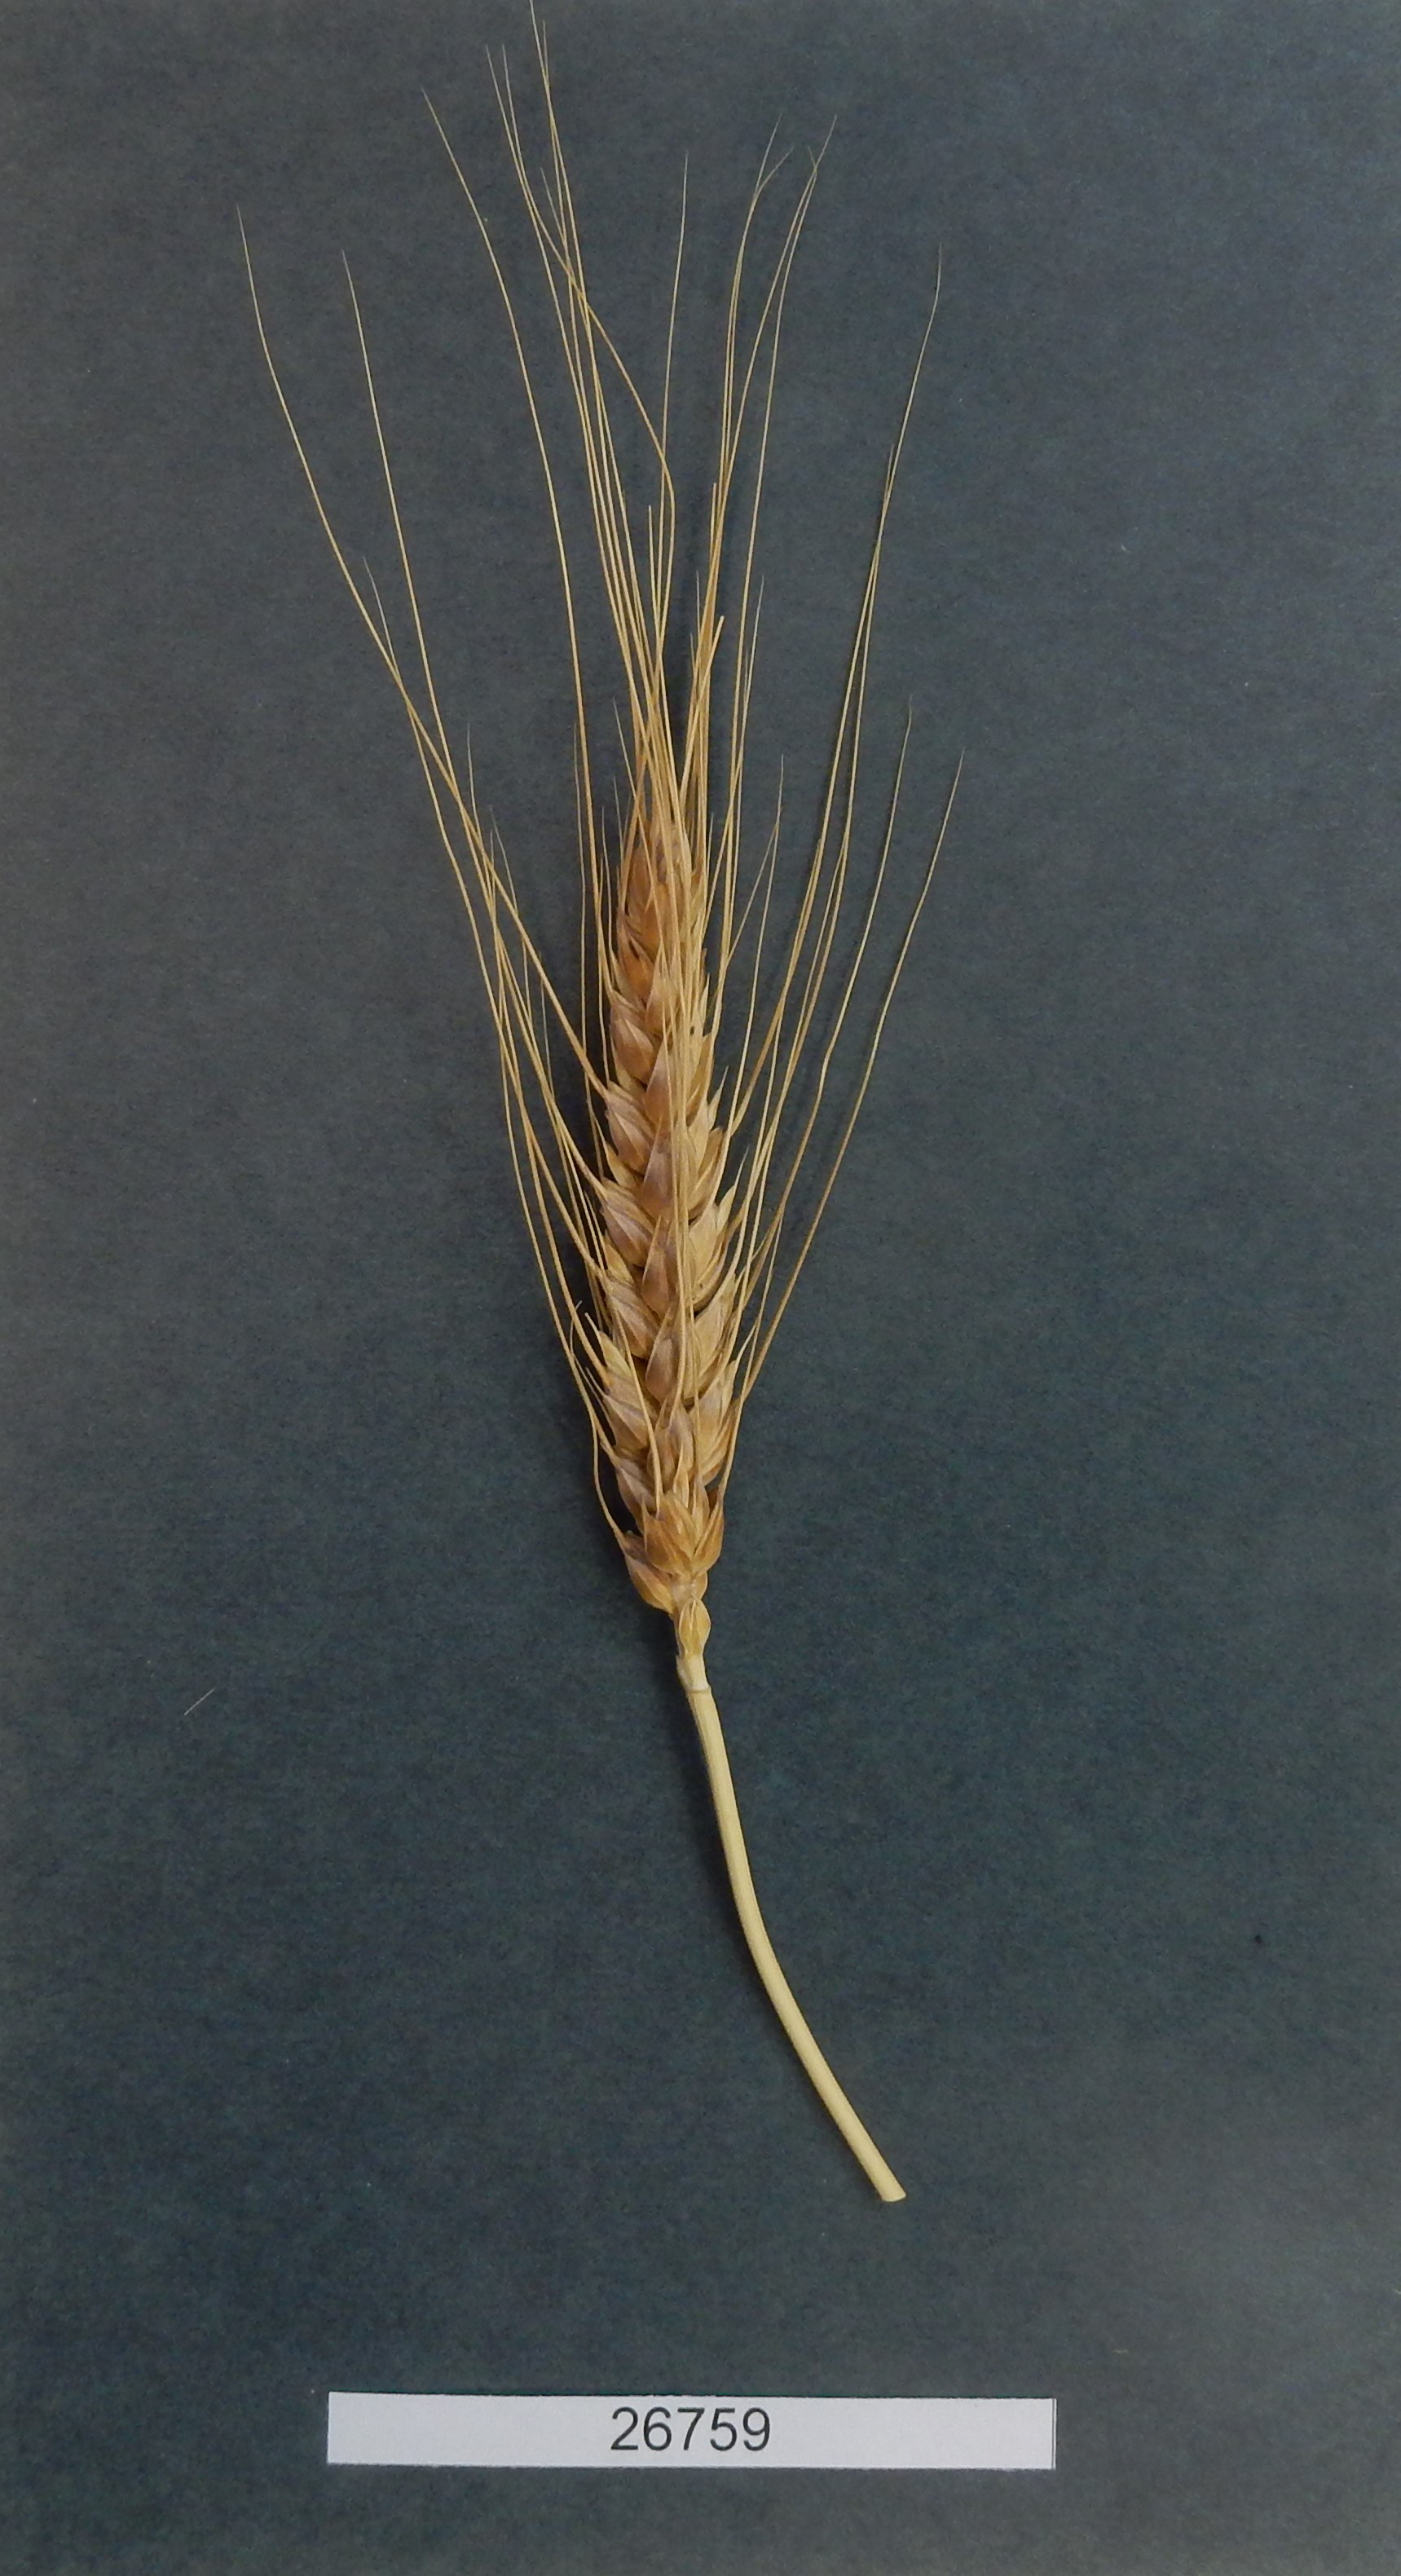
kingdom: Plantae
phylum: Tracheophyta
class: Liliopsida
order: Poales
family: Poaceae
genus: Triticum
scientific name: Triticum aestivum
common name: Common wheat
